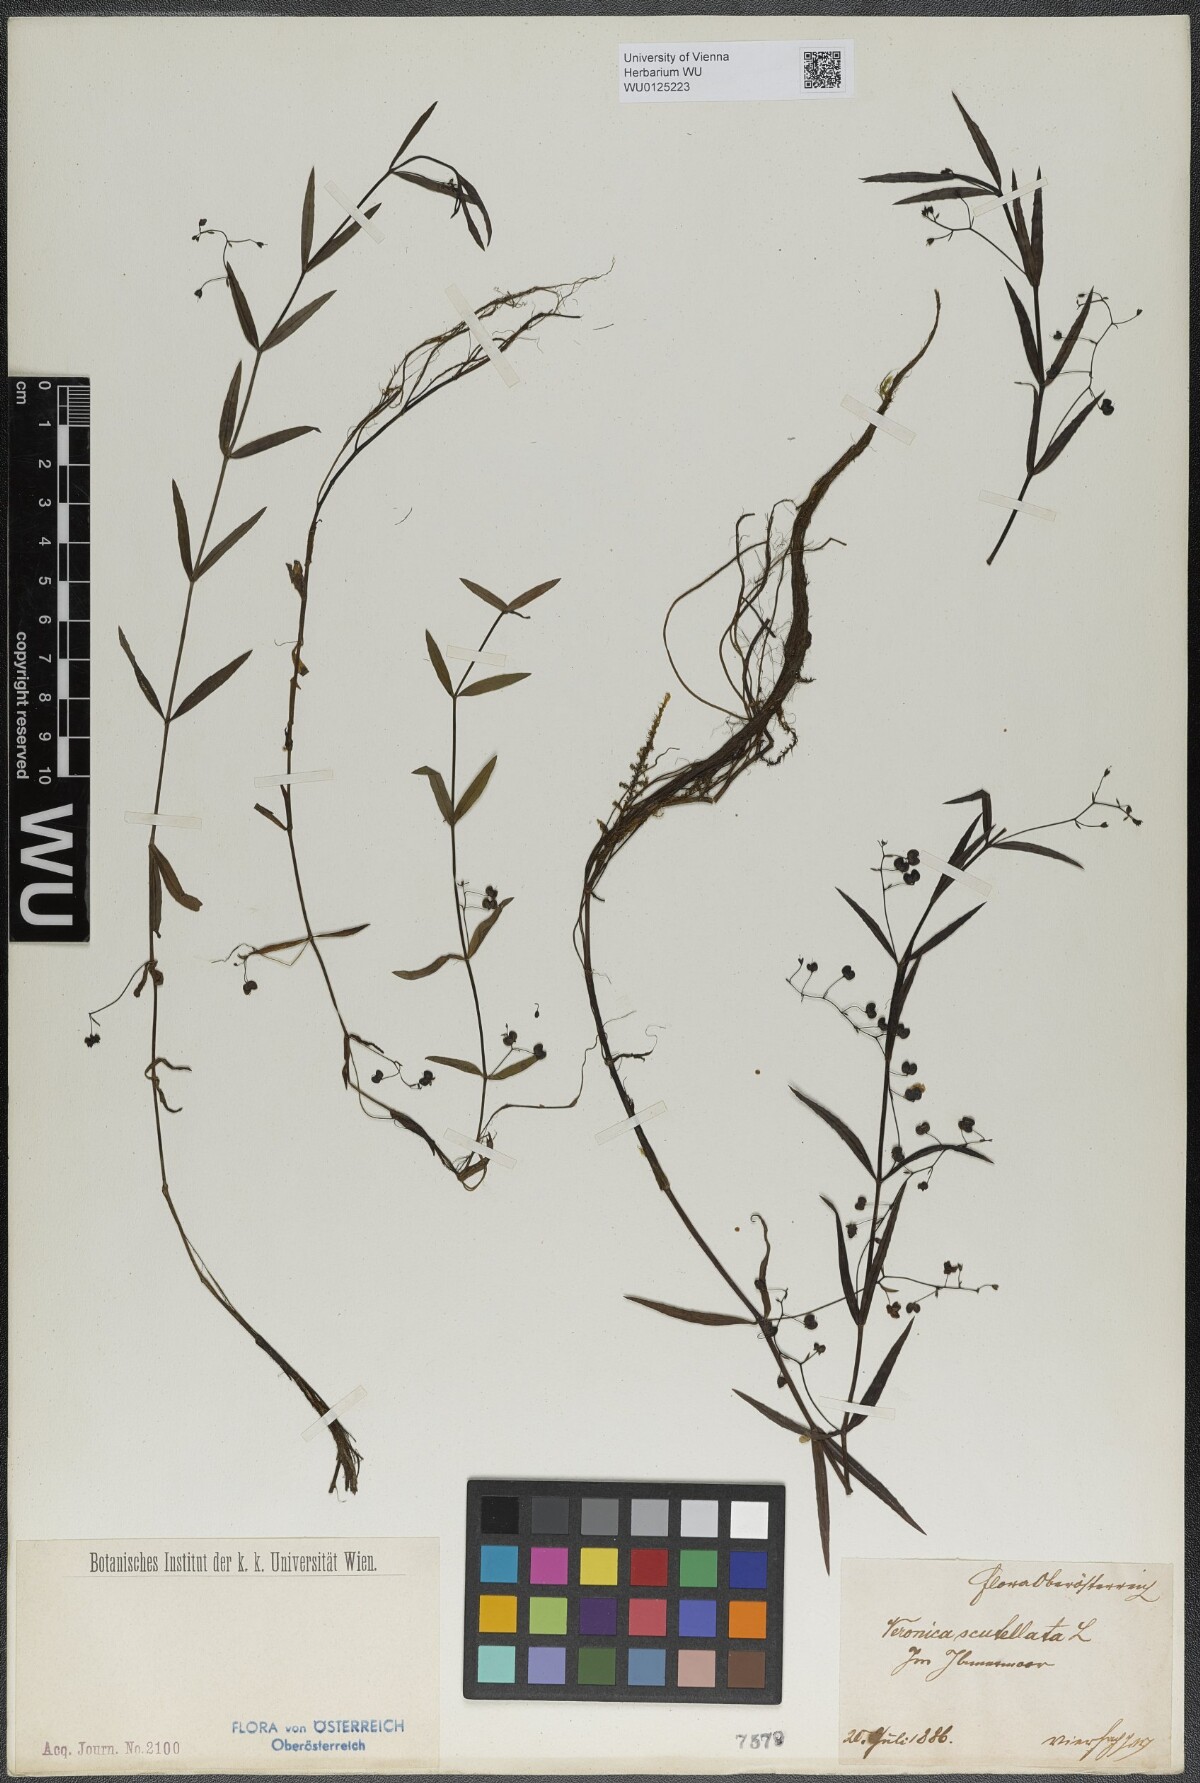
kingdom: Plantae
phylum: Tracheophyta
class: Magnoliopsida
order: Lamiales
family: Plantaginaceae
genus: Veronica
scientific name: Veronica scutellata
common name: Marsh speedwell
